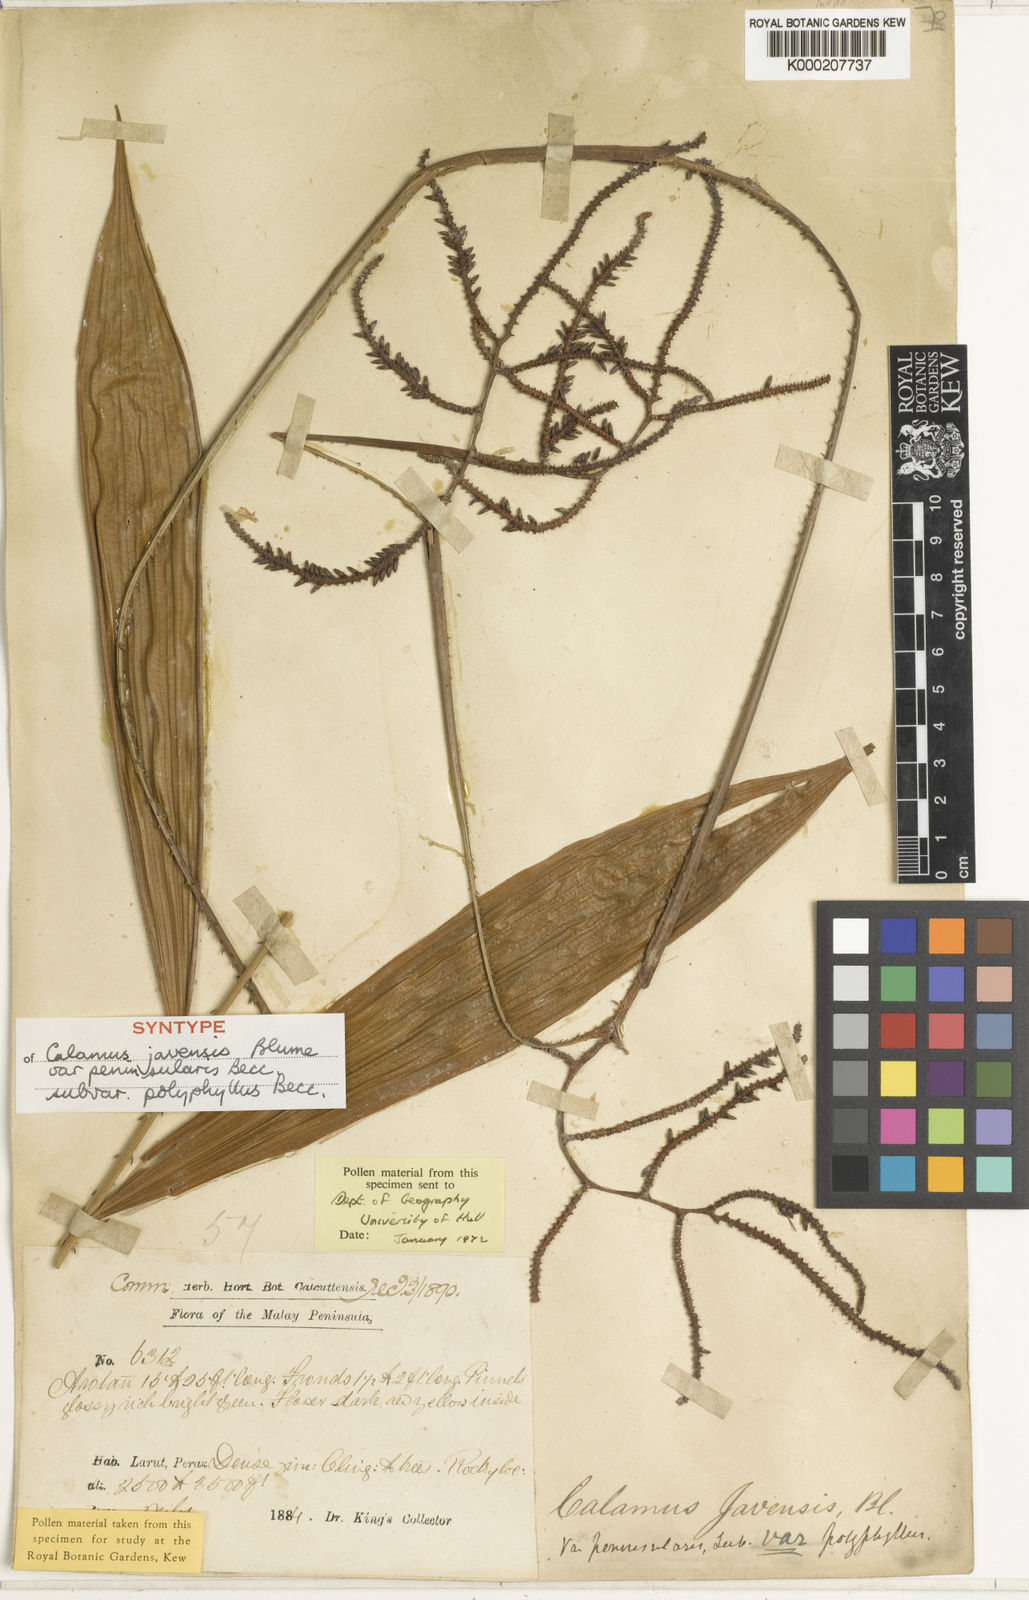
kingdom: Plantae
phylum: Tracheophyta
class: Liliopsida
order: Arecales
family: Arecaceae
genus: Calamus
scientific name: Calamus javensis
